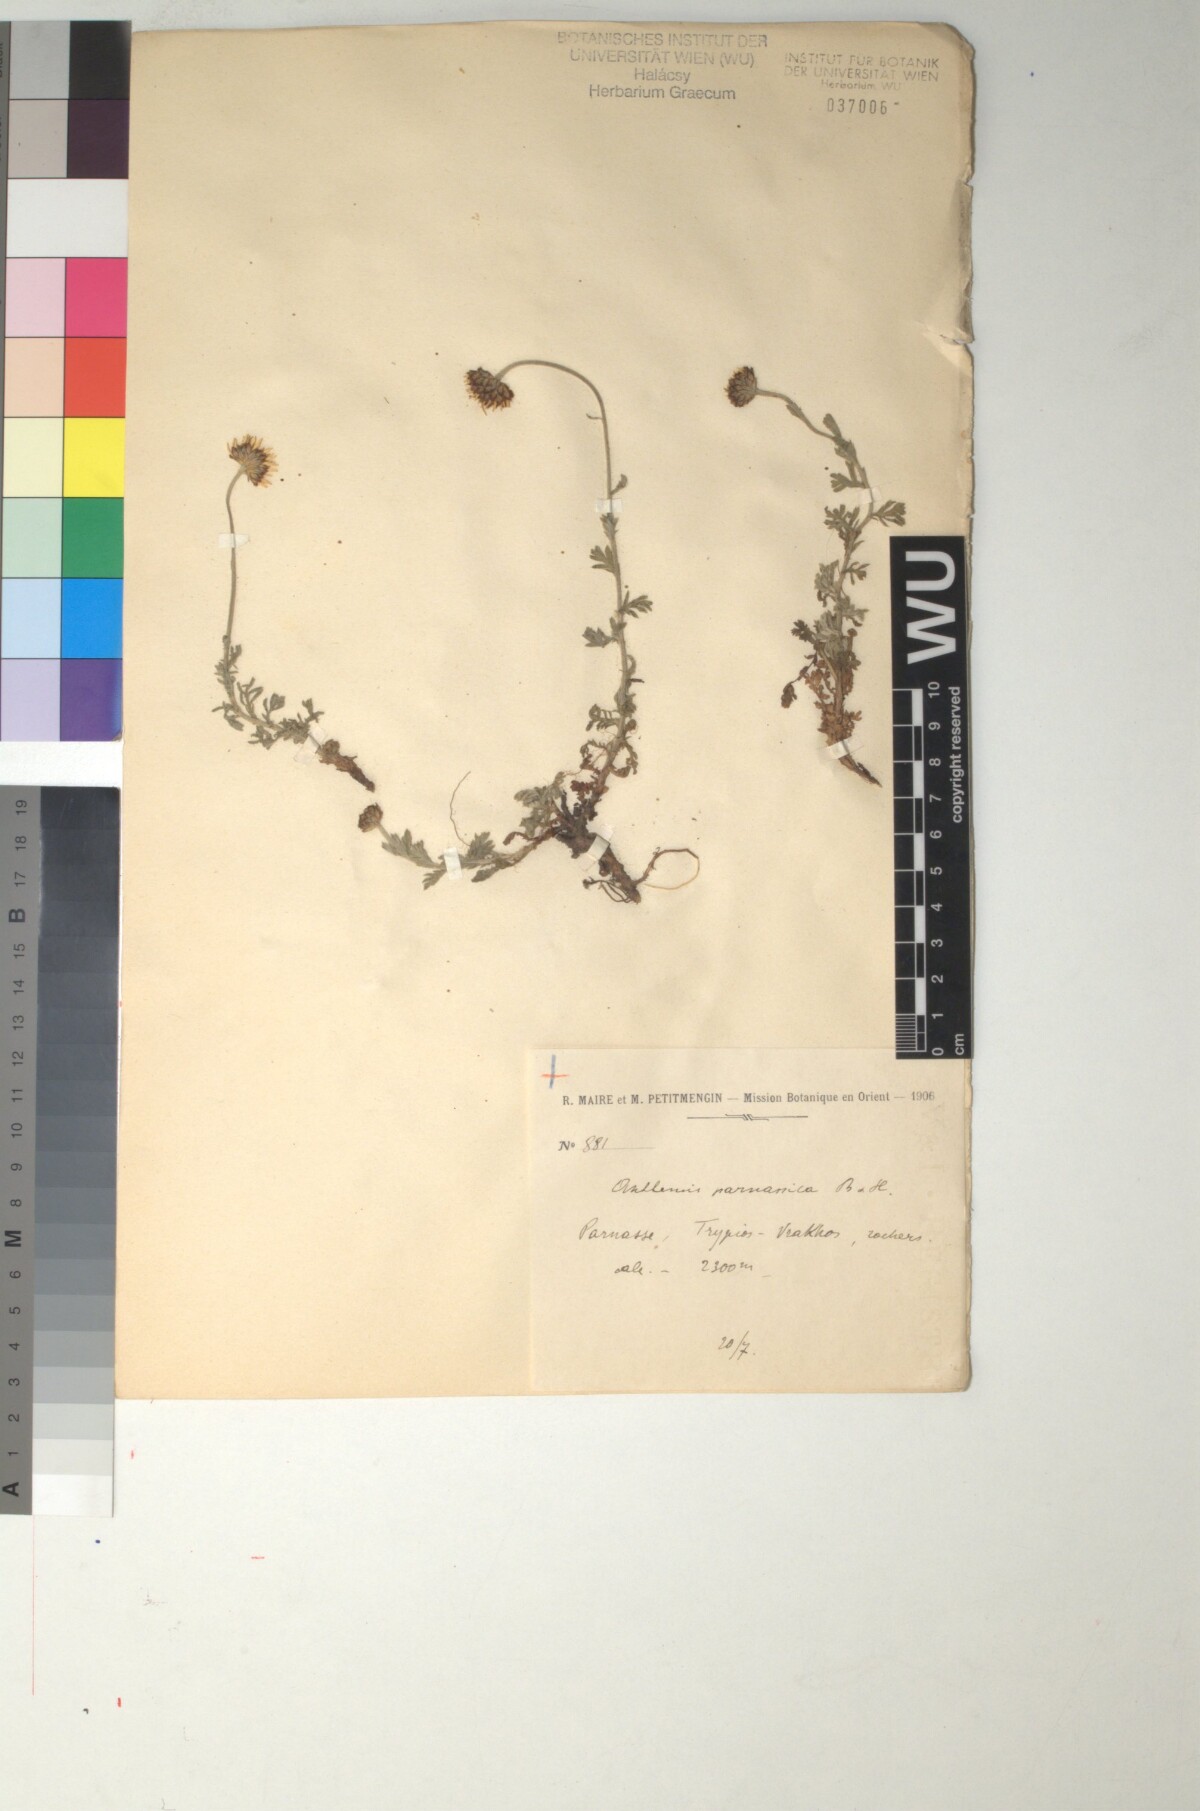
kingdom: Plantae
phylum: Tracheophyta
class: Magnoliopsida
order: Asterales
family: Asteraceae
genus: Cota
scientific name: Cota tinctoria
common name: Golden chamomile
